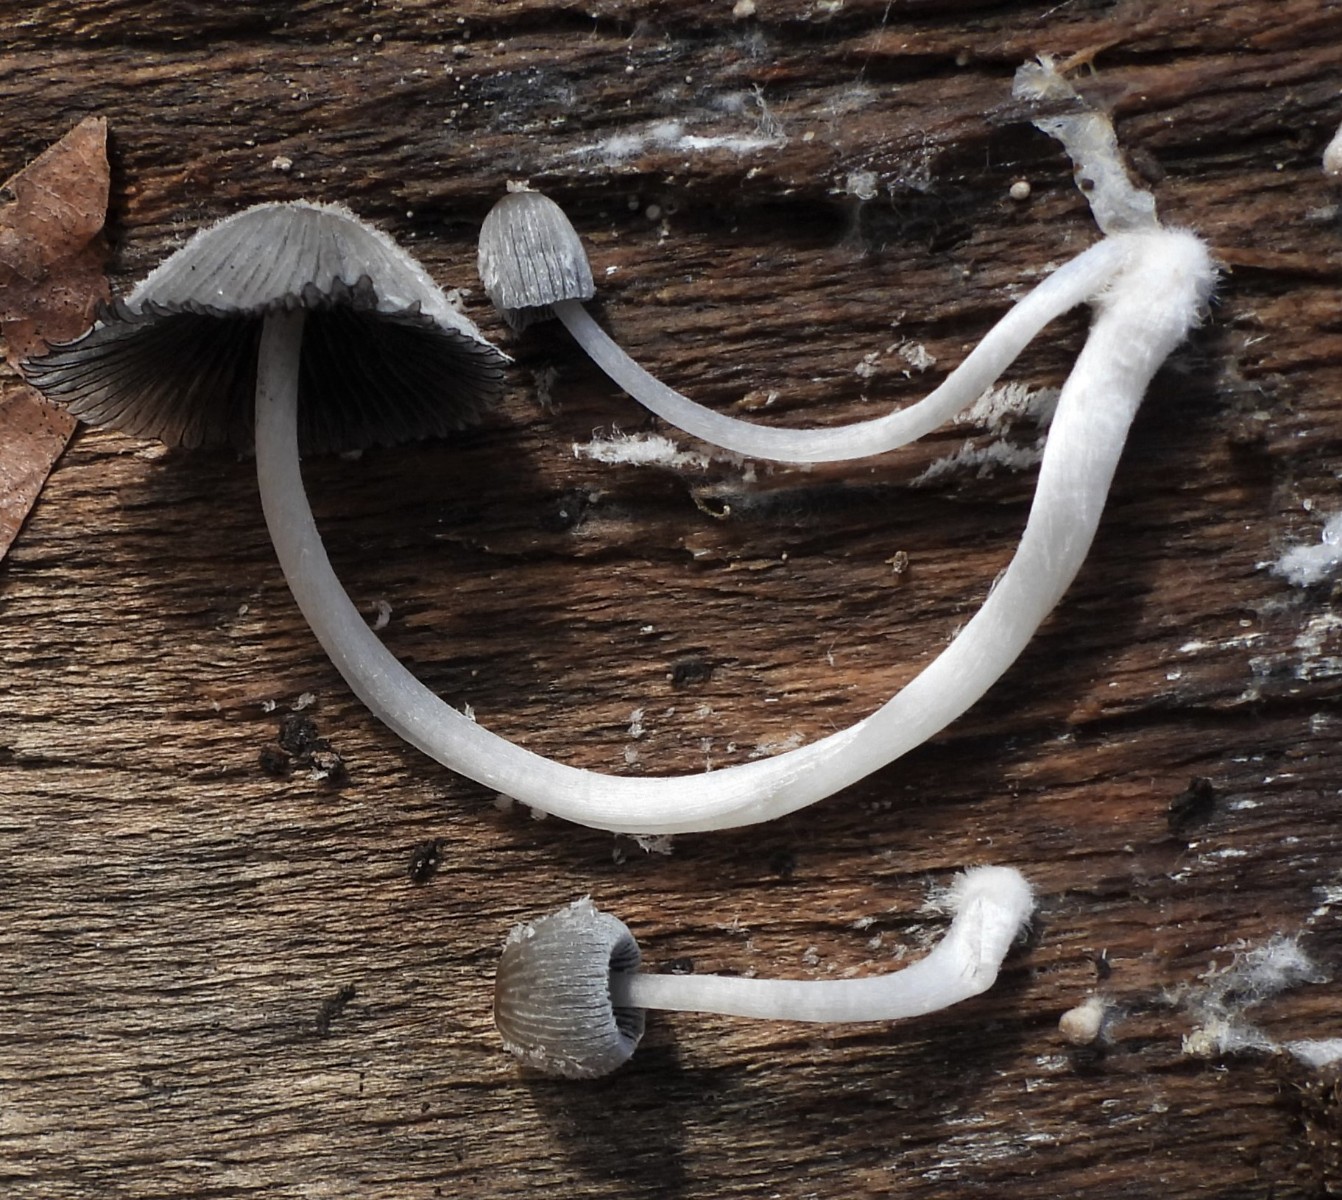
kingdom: Fungi
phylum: Basidiomycota
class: Agaricomycetes
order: Agaricales
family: Psathyrellaceae
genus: Coprinopsis
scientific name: Coprinopsis
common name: blækhat
